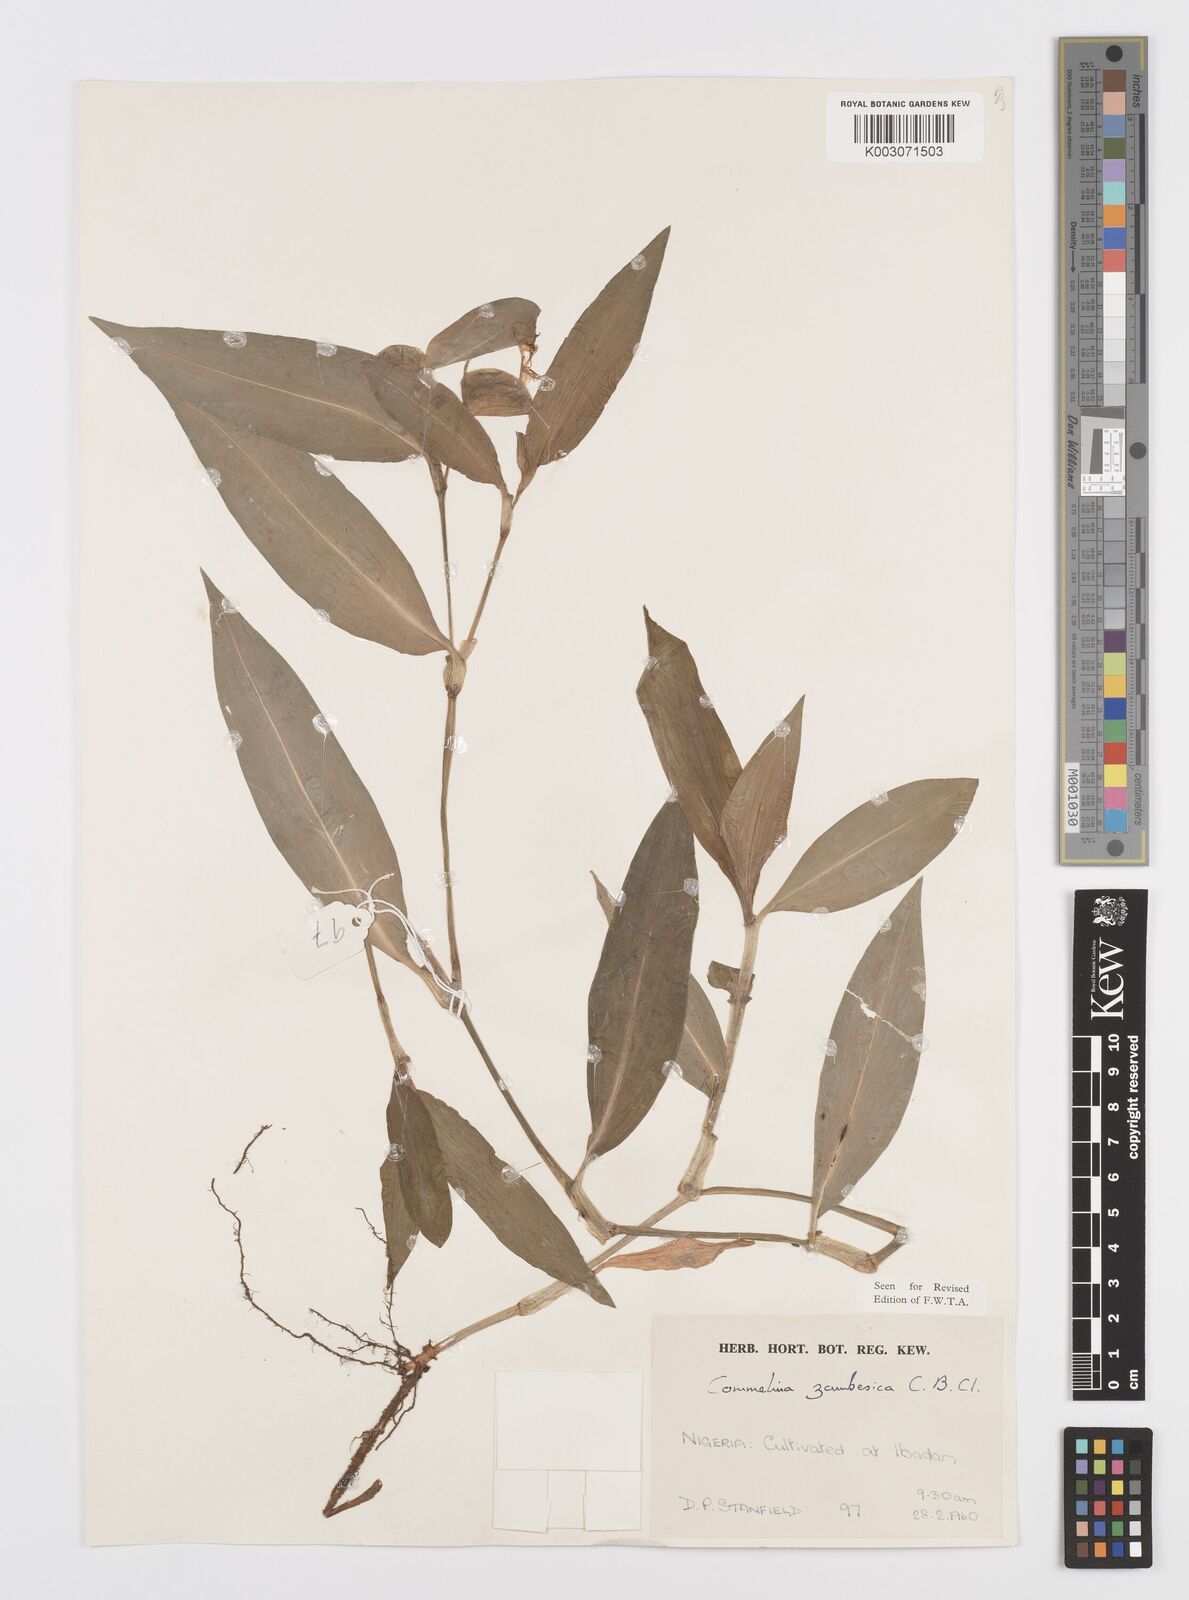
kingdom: Plantae
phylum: Tracheophyta
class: Liliopsida
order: Commelinales
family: Commelinaceae
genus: Commelina
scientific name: Commelina zambesica
